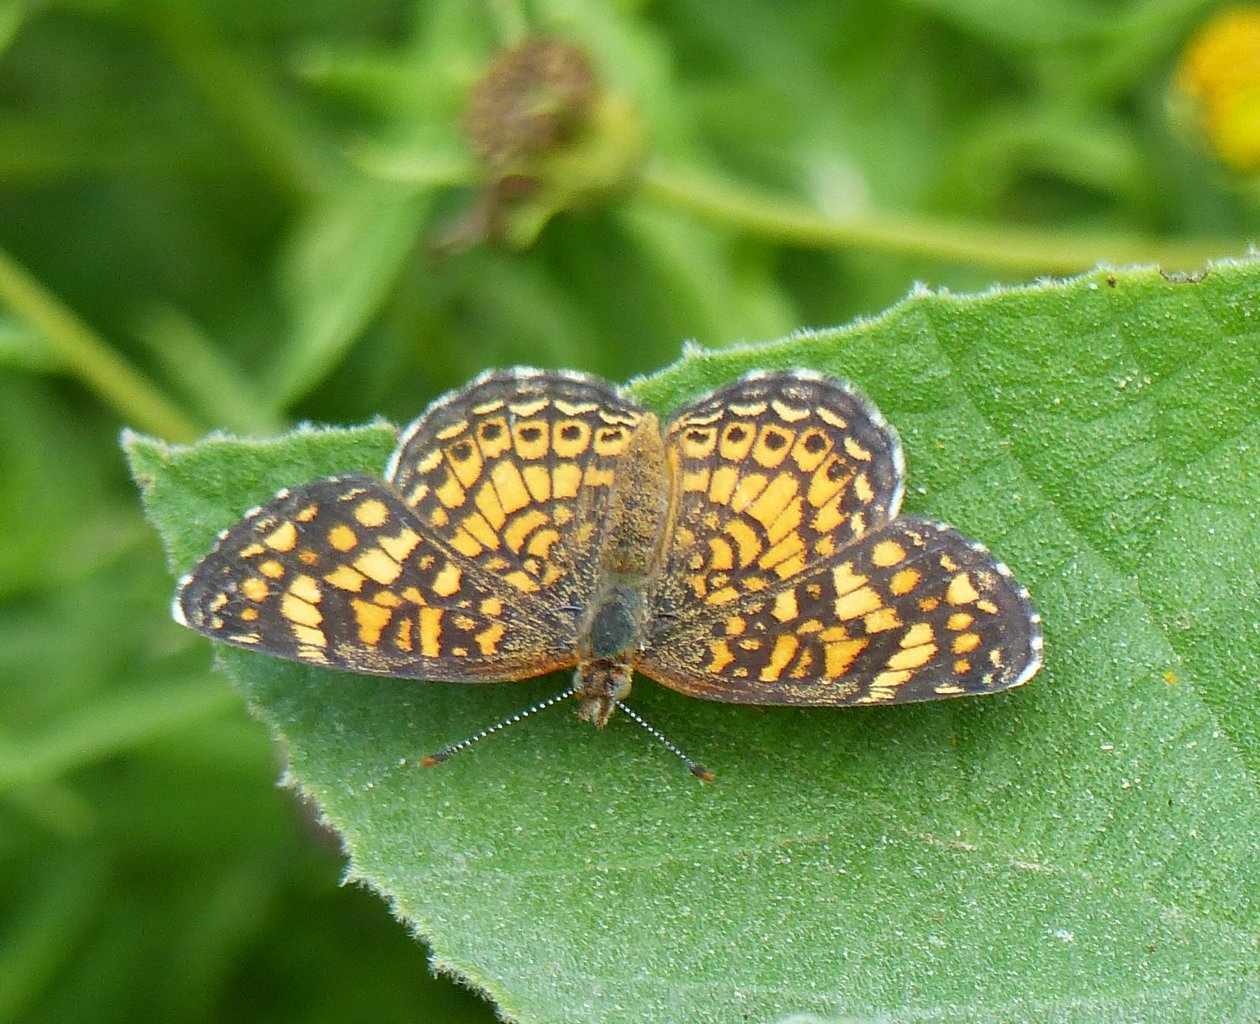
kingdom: Animalia
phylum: Arthropoda
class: Insecta
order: Lepidoptera
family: Nymphalidae
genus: Phyciodes
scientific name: Phyciodes vesta
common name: Vesta Crescent
